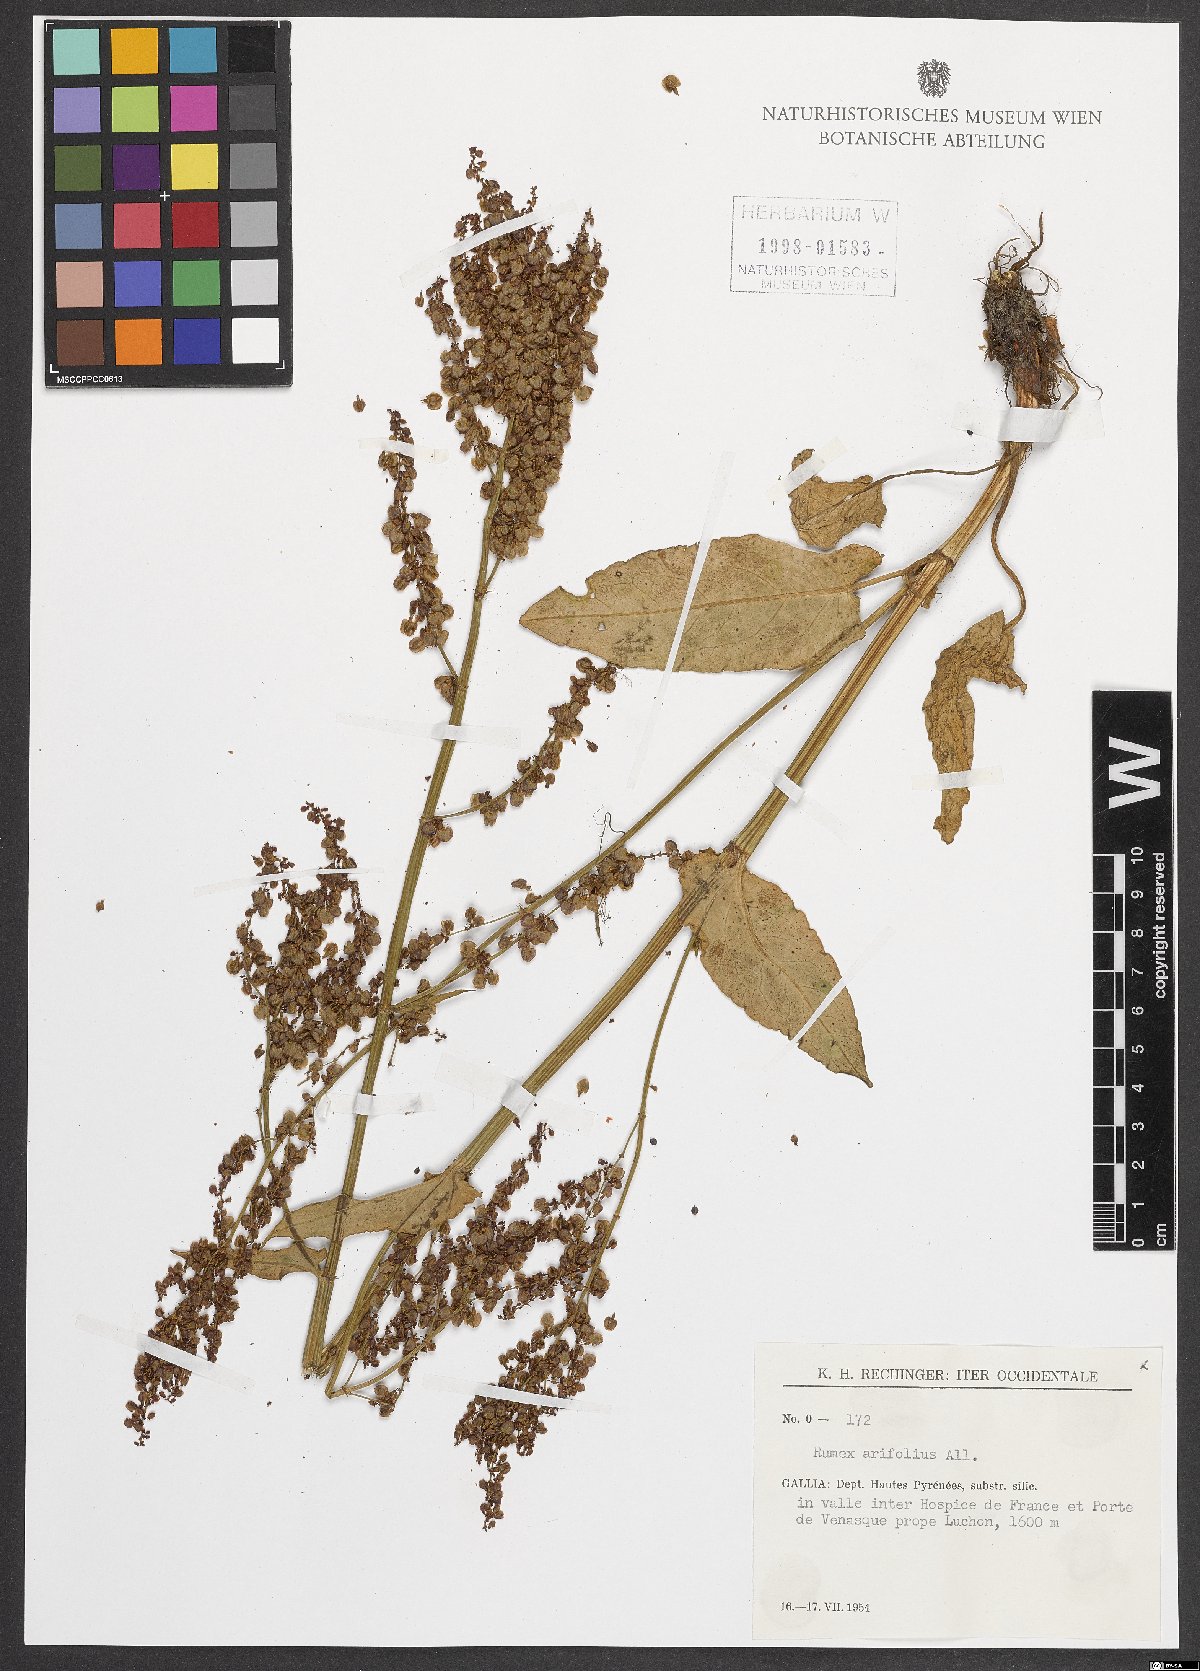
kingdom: Plantae
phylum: Tracheophyta
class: Magnoliopsida
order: Caryophyllales
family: Polygonaceae
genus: Rumex
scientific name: Rumex arifolius
